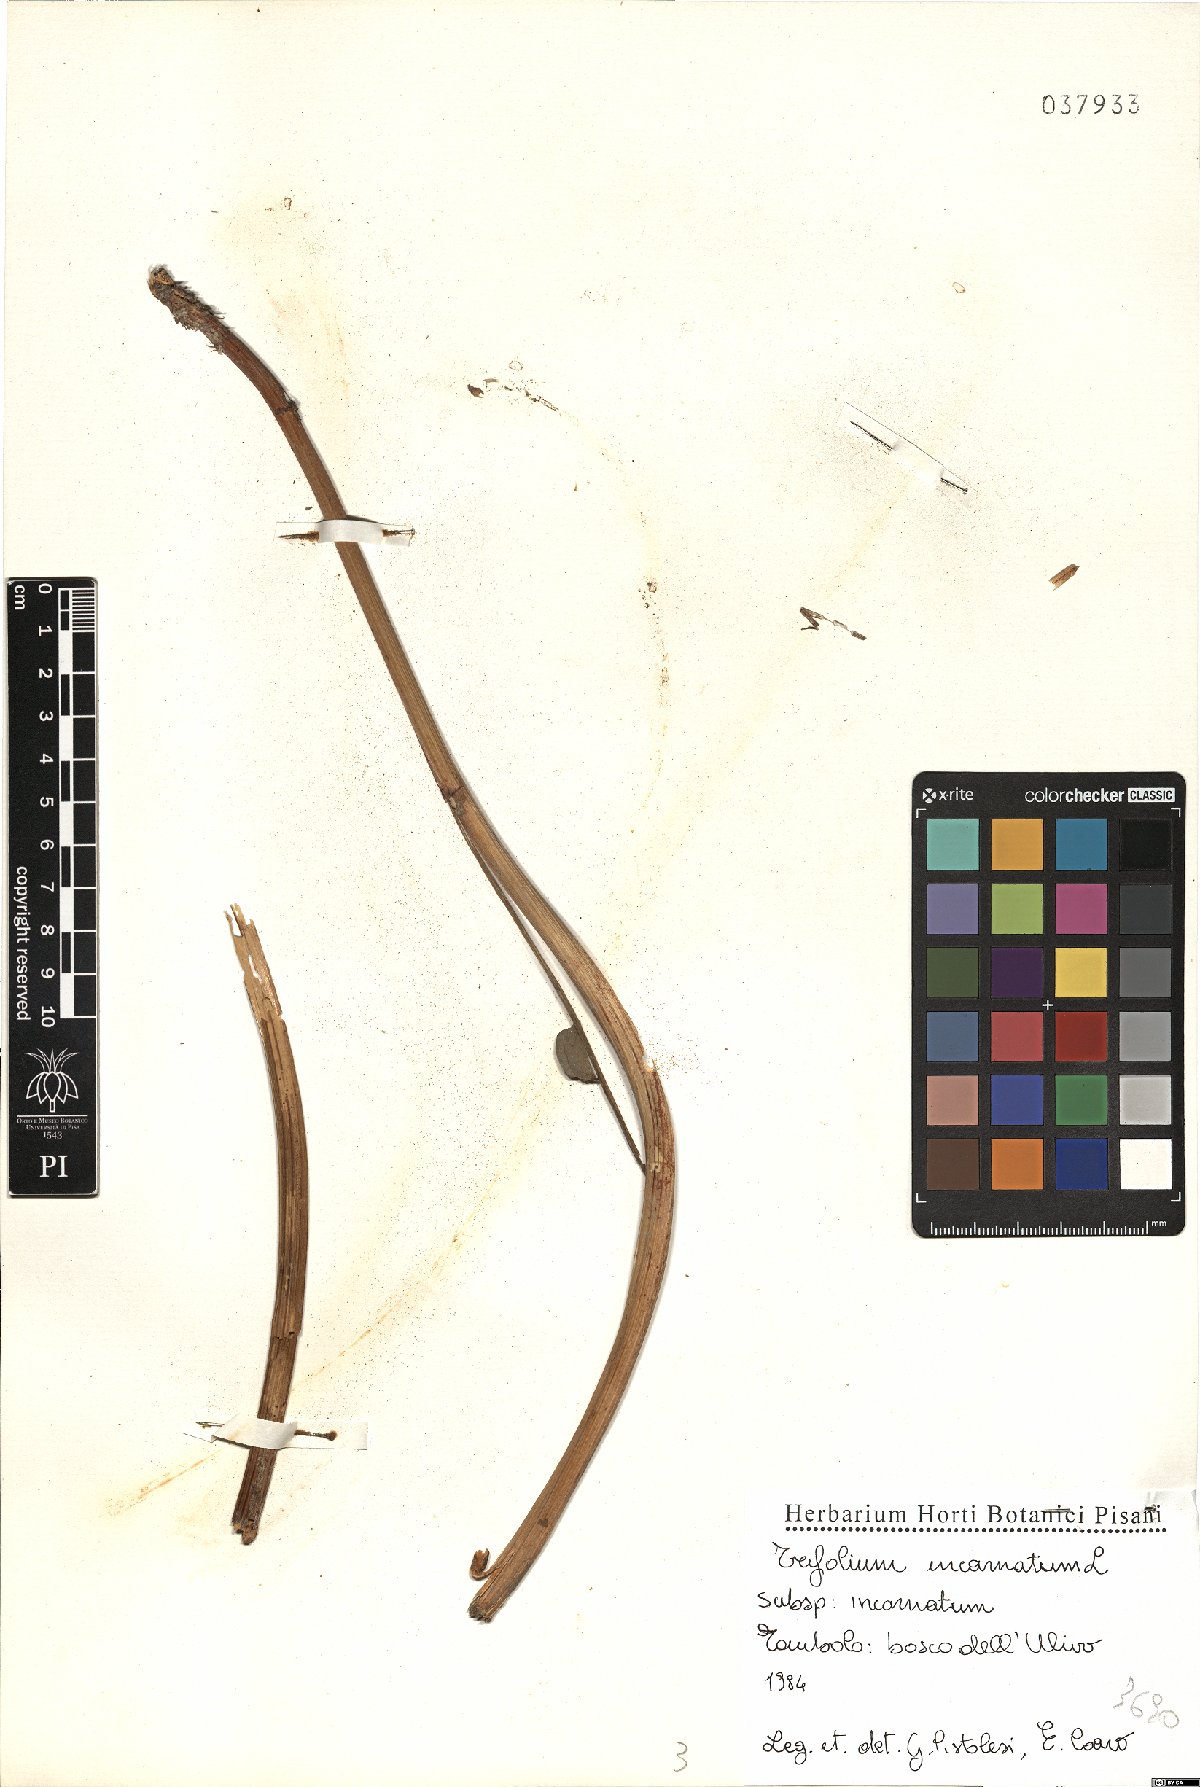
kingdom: Plantae
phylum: Tracheophyta
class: Magnoliopsida
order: Fabales
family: Fabaceae
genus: Trifolium
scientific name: Trifolium incarnatum
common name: Crimson clover
